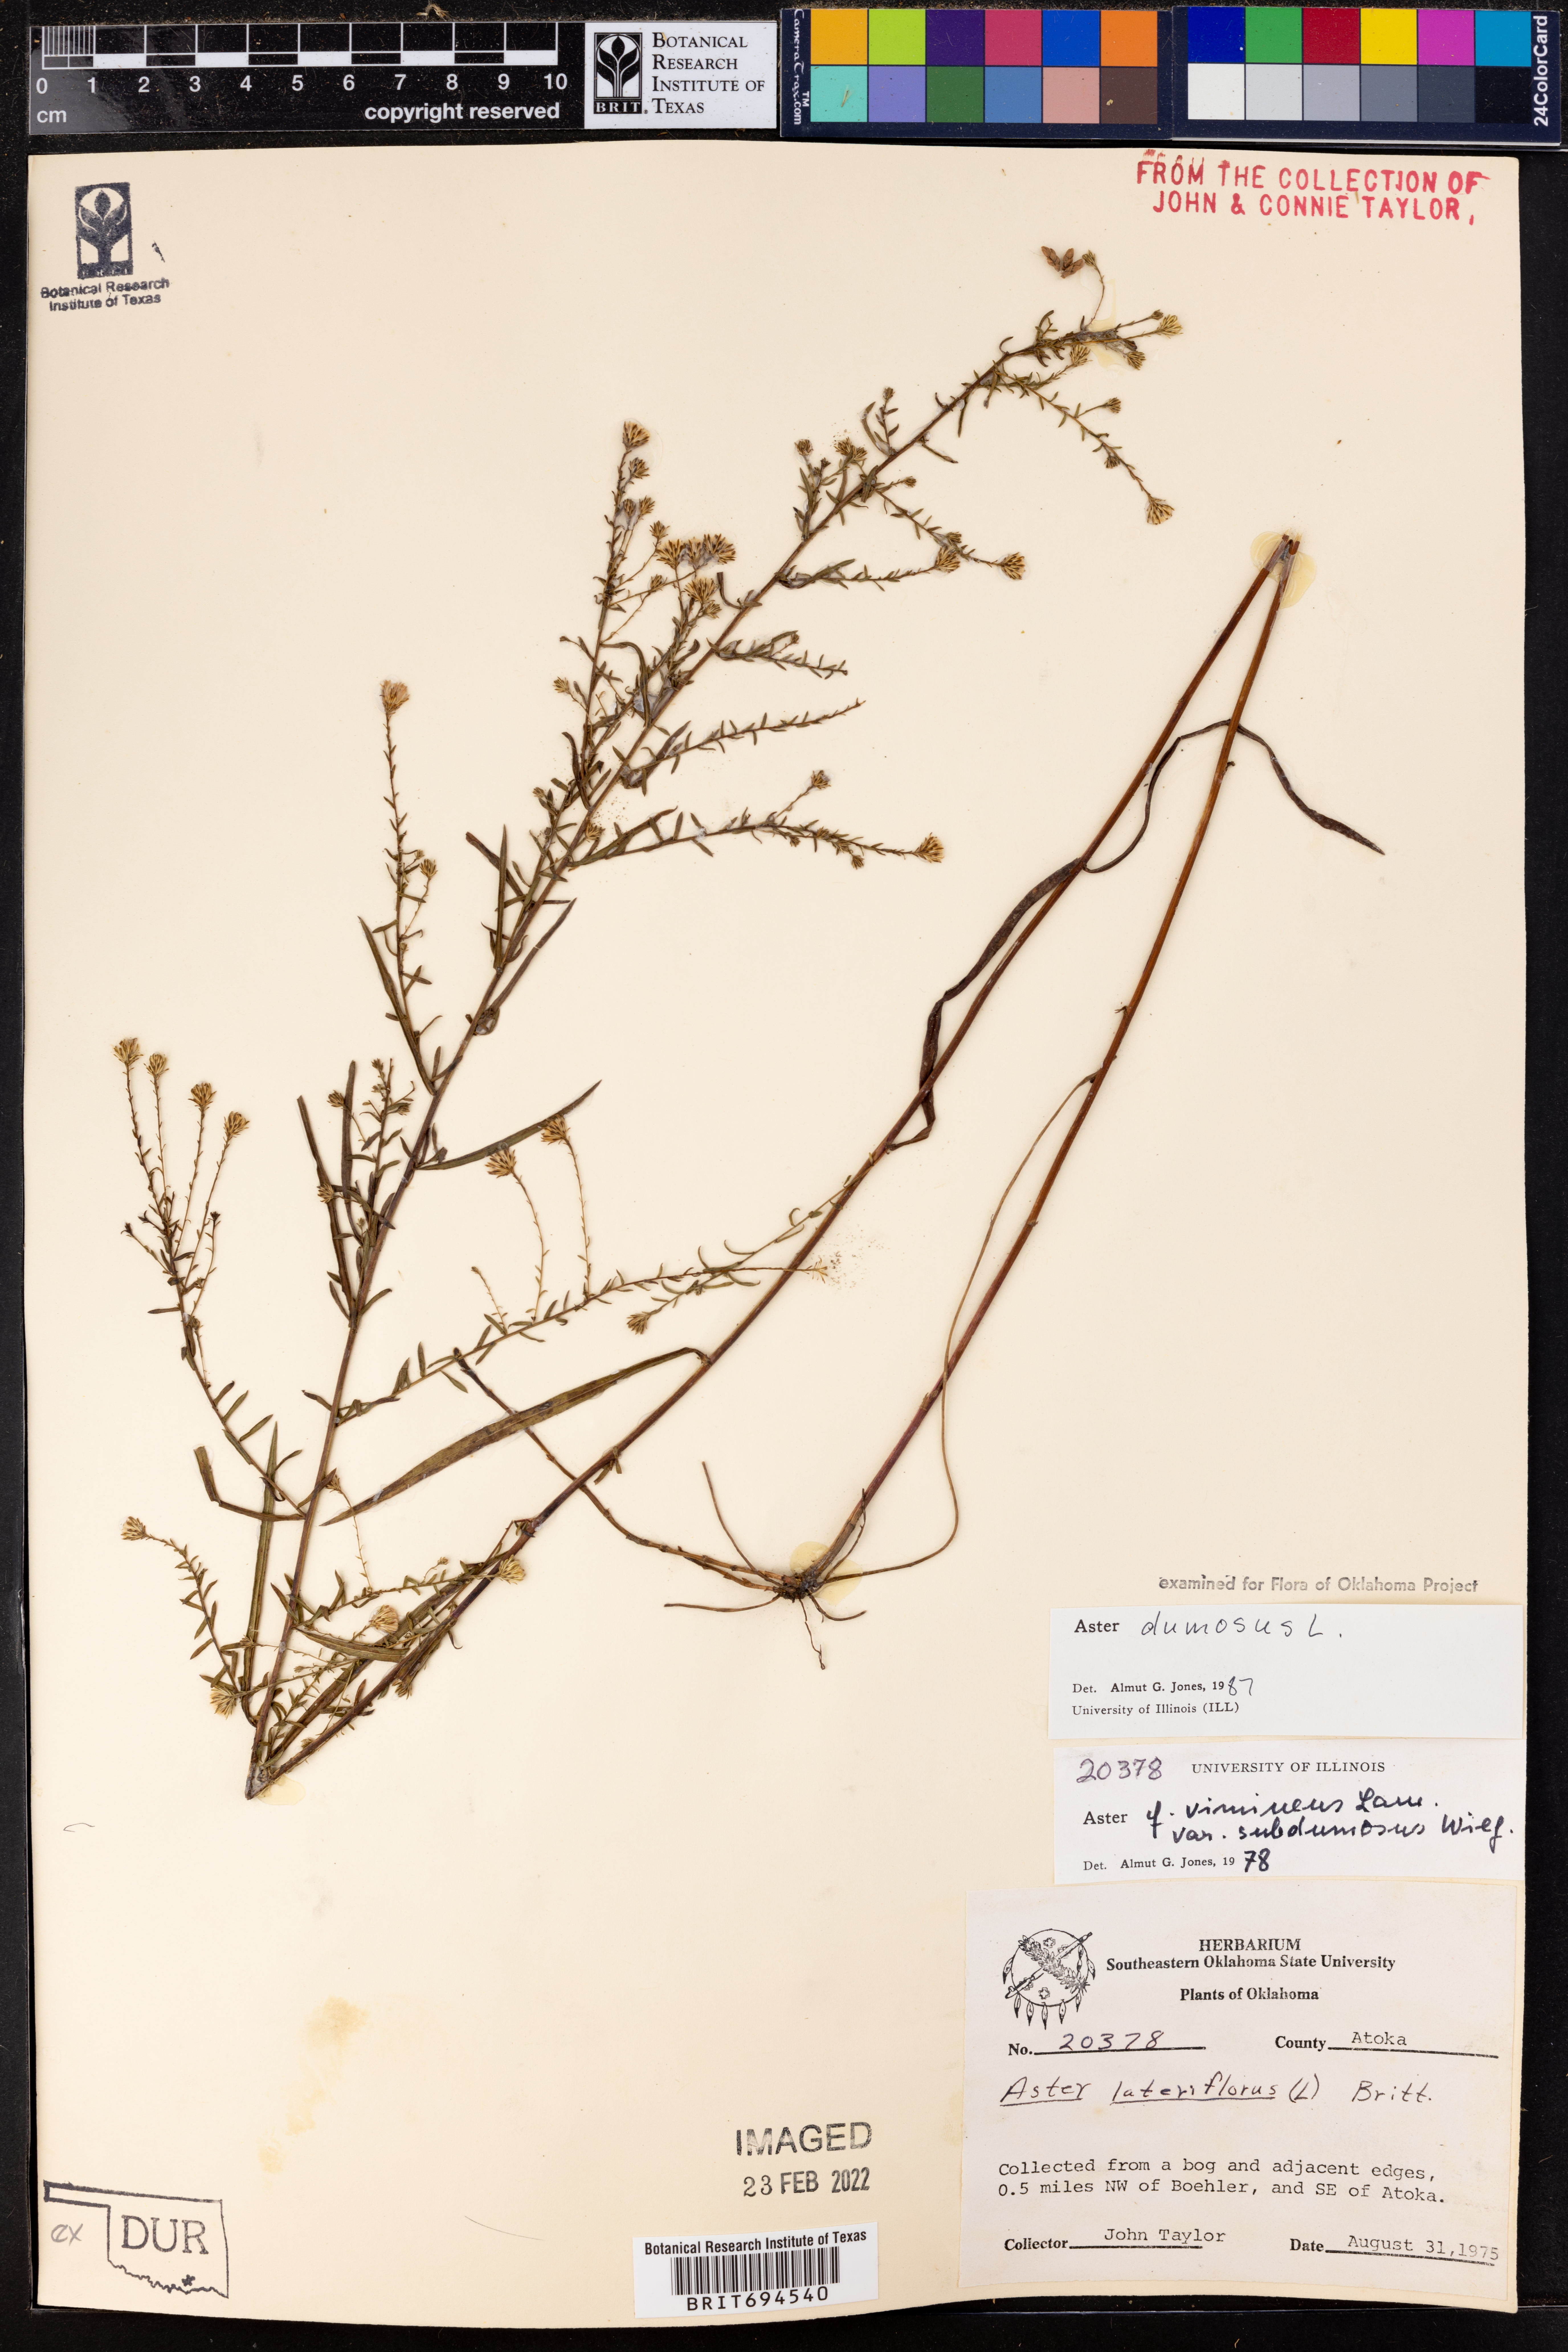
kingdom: Plantae
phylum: Tracheophyta
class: Magnoliopsida
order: Asterales
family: Asteraceae
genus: Symphyotrichum
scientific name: Symphyotrichum dumosum
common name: Bushy aster
